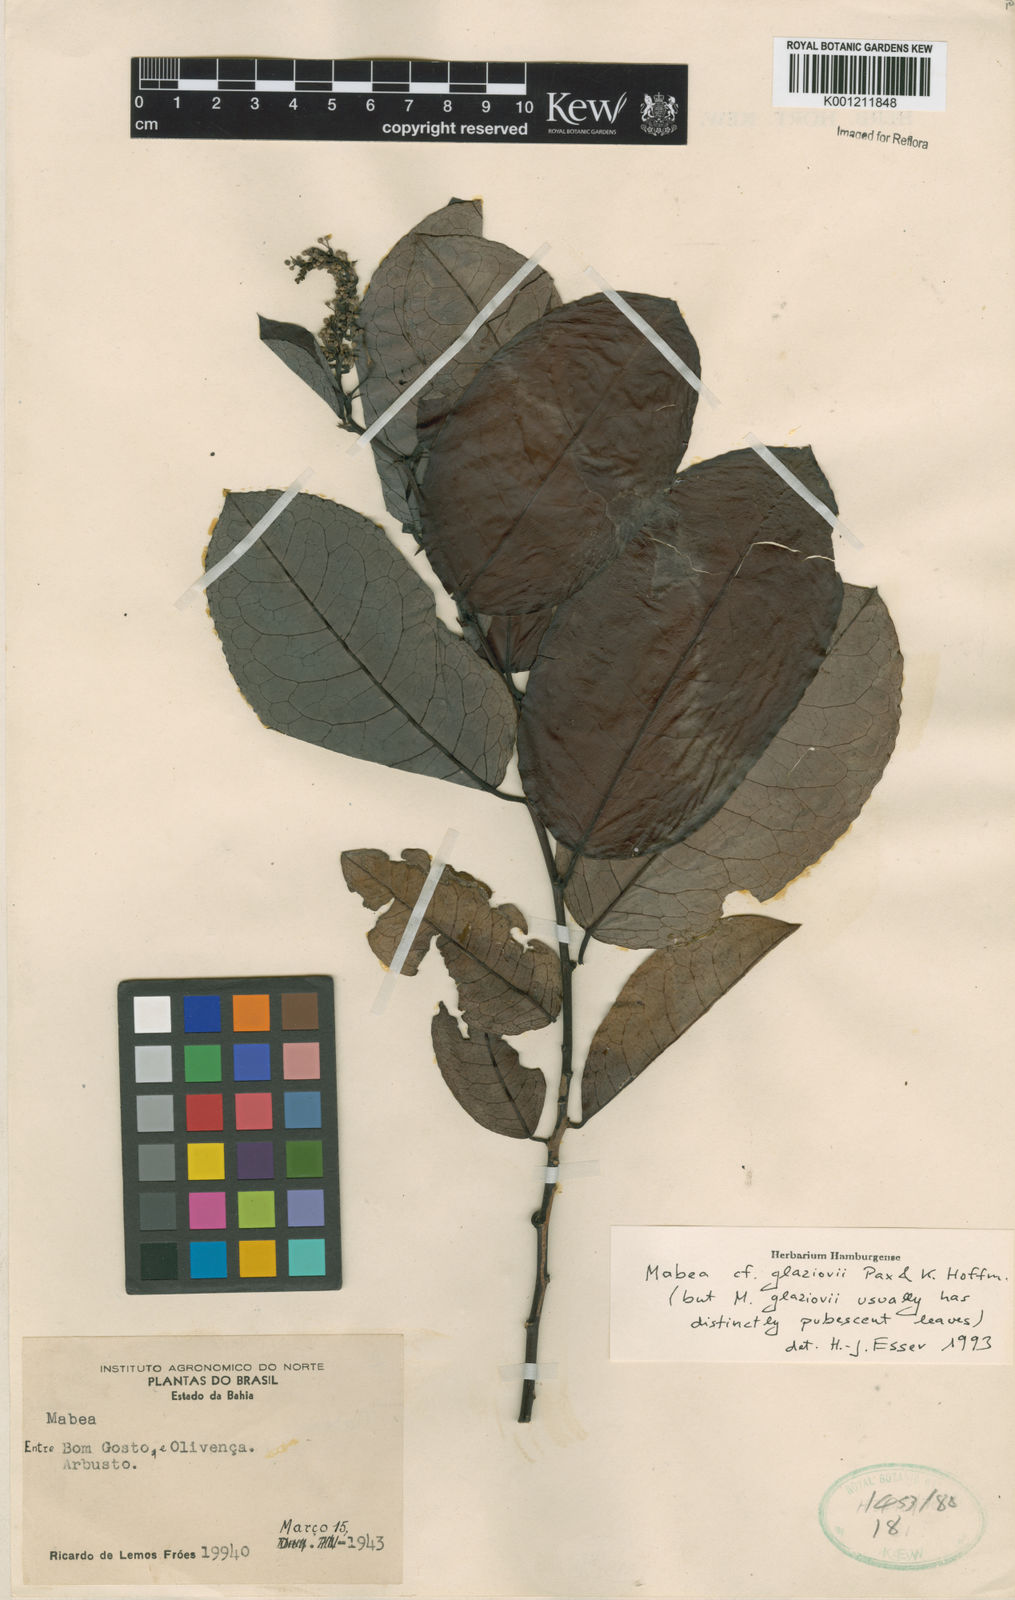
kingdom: Plantae
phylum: Tracheophyta
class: Magnoliopsida
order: Malpighiales
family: Euphorbiaceae
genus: Mabea
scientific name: Mabea glaziovii
